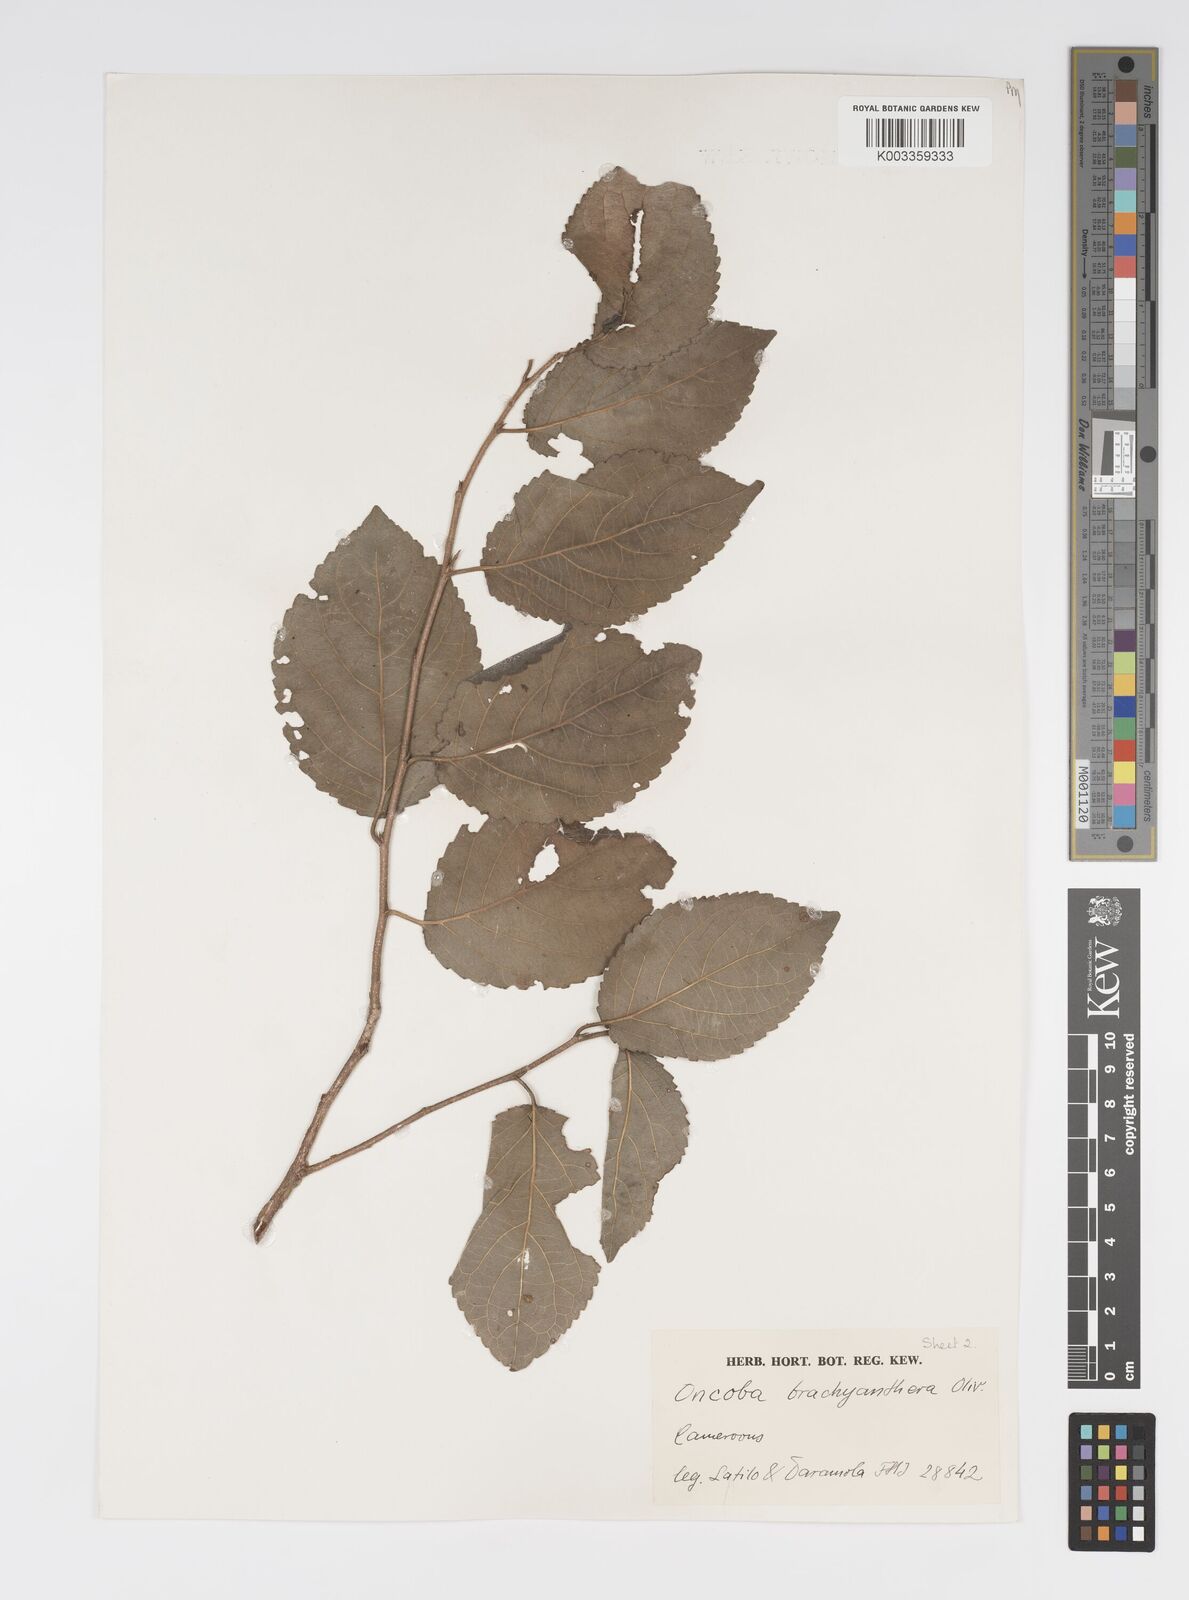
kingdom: Plantae
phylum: Tracheophyta
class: Magnoliopsida
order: Malpighiales
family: Salicaceae
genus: Oncoba
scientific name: Oncoba brachyanthera
